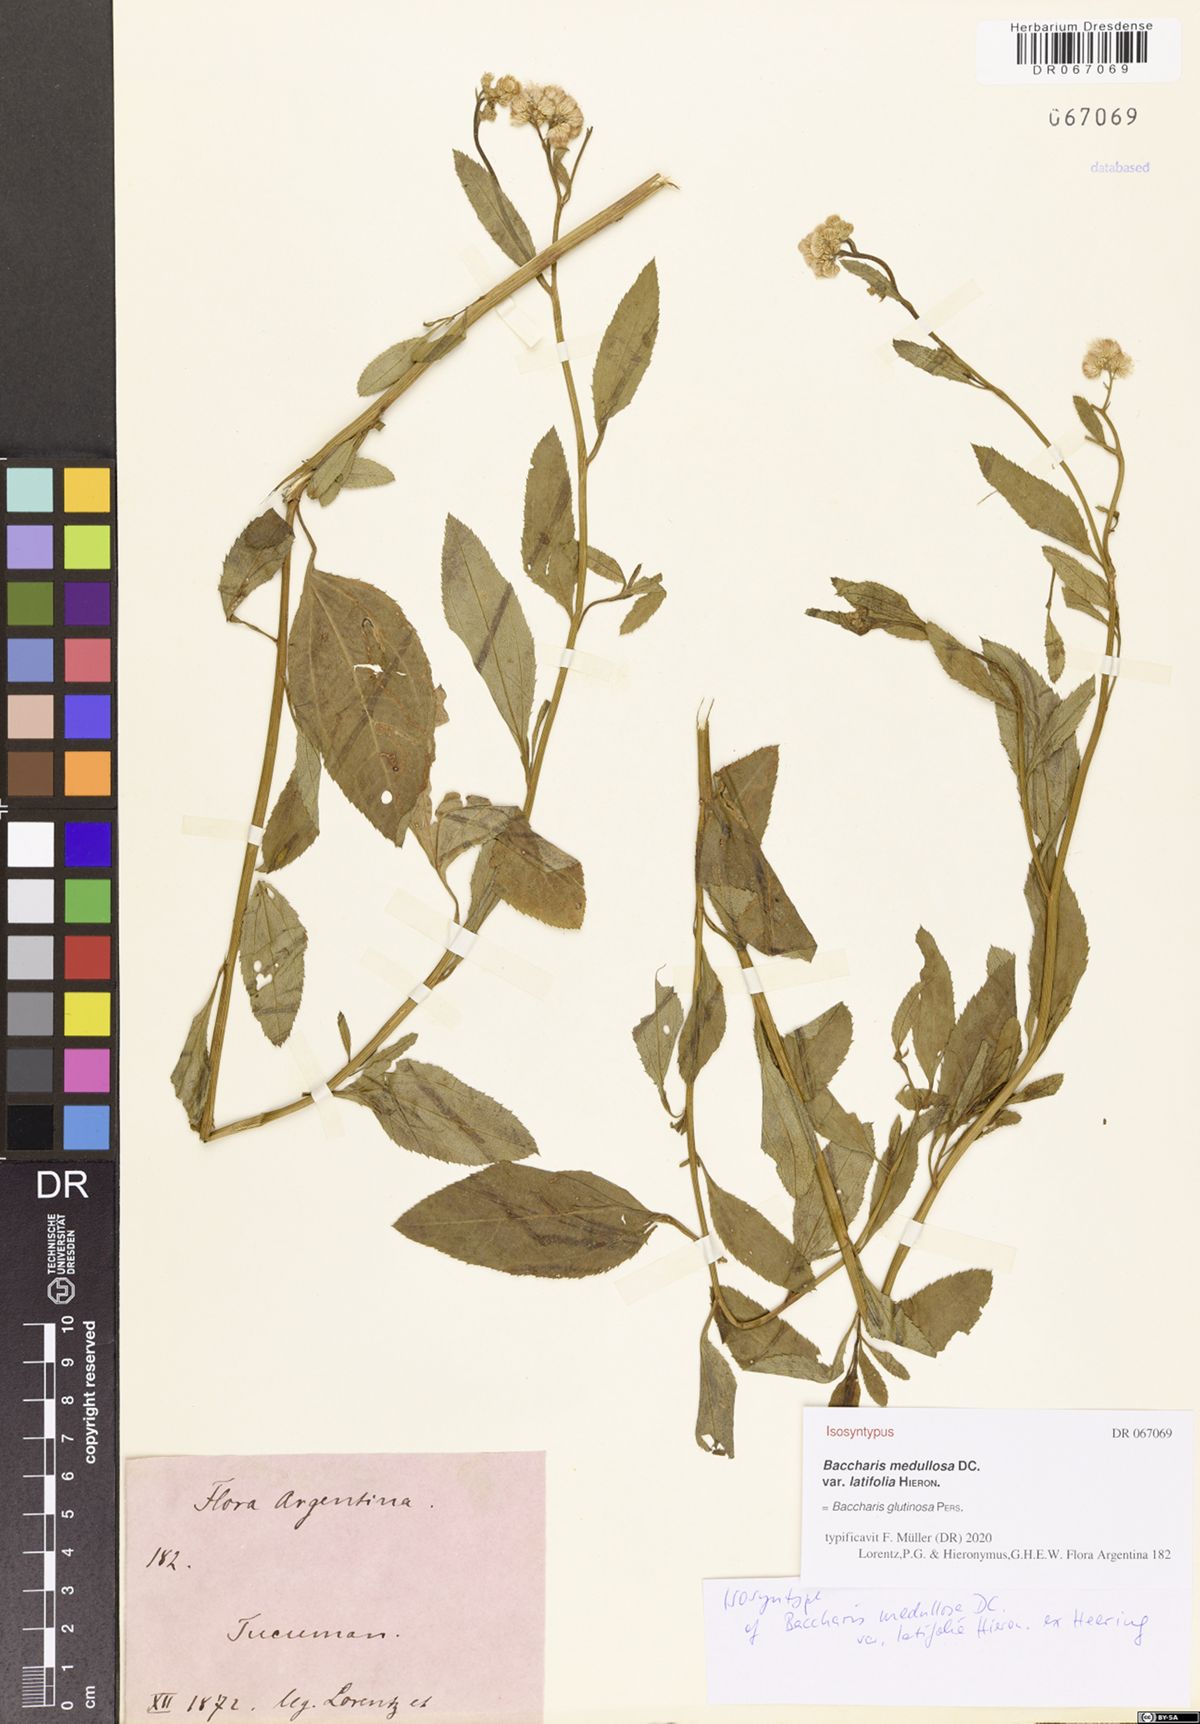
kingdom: Plantae
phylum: Tracheophyta
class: Magnoliopsida
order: Asterales
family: Asteraceae
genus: Baccharis
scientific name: Baccharis glutinosa
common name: Saltmarsh baccharis
